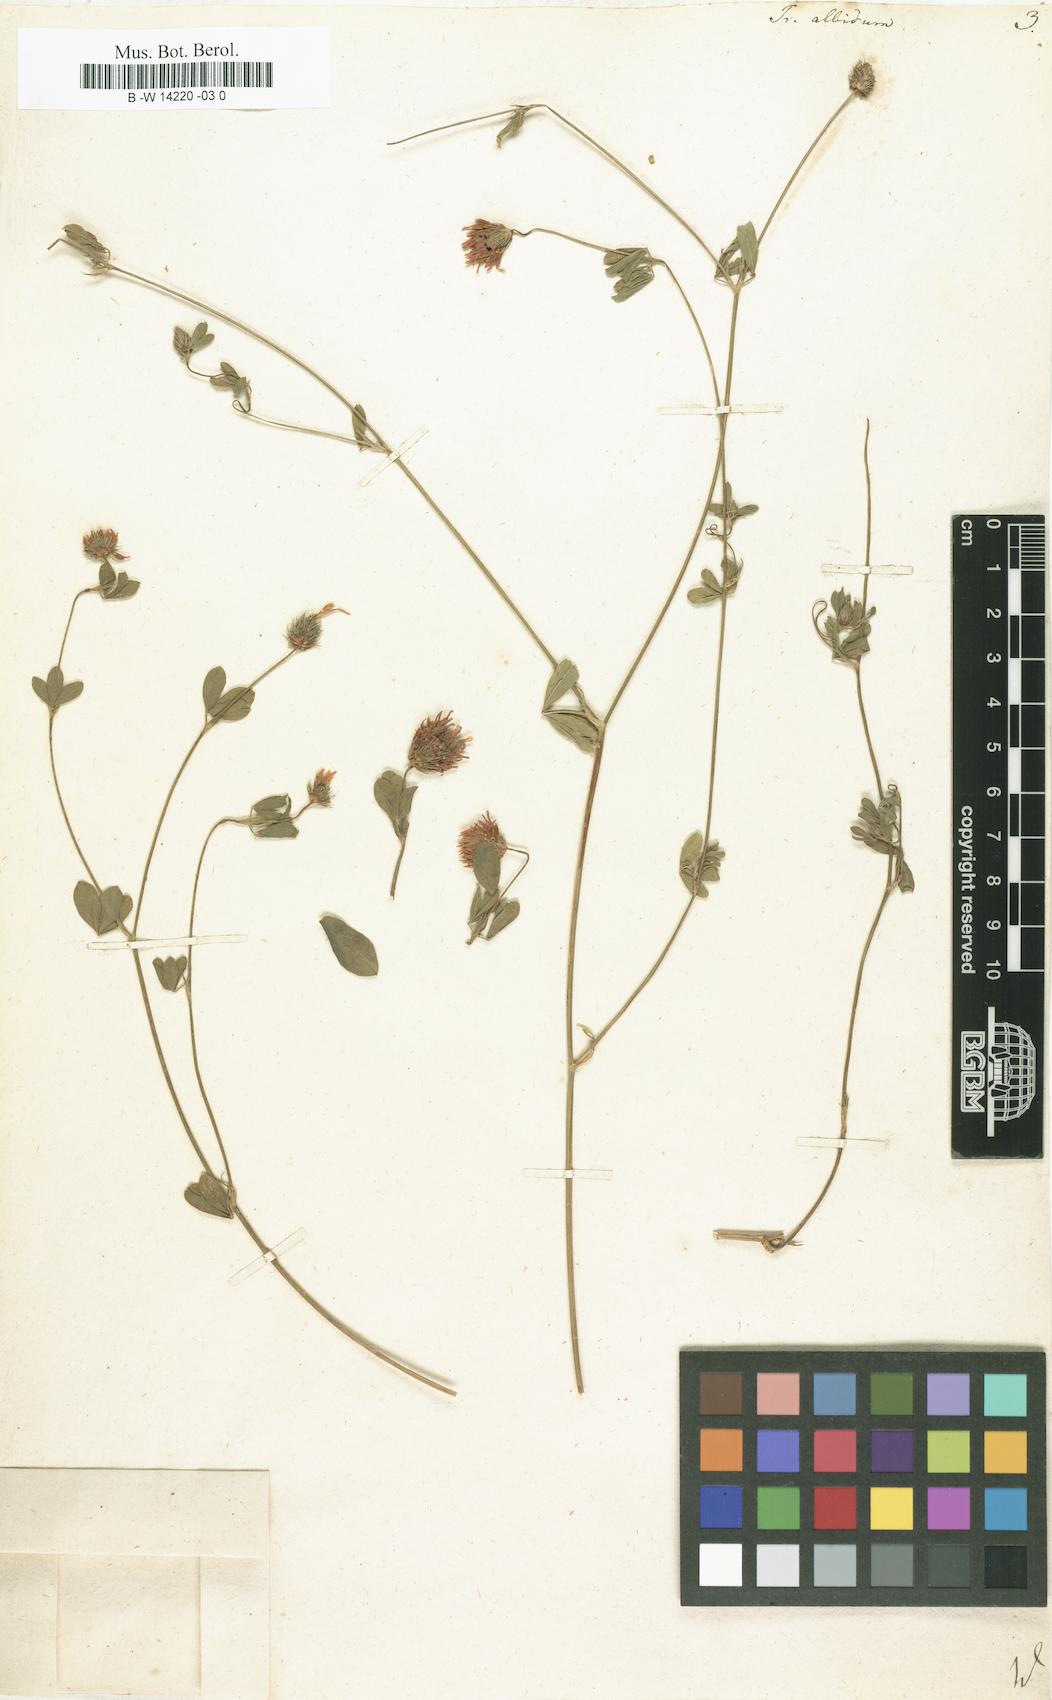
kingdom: Plantae
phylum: Tracheophyta
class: Magnoliopsida
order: Fabales
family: Fabaceae
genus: Trifolium
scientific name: Trifolium squarrosum
